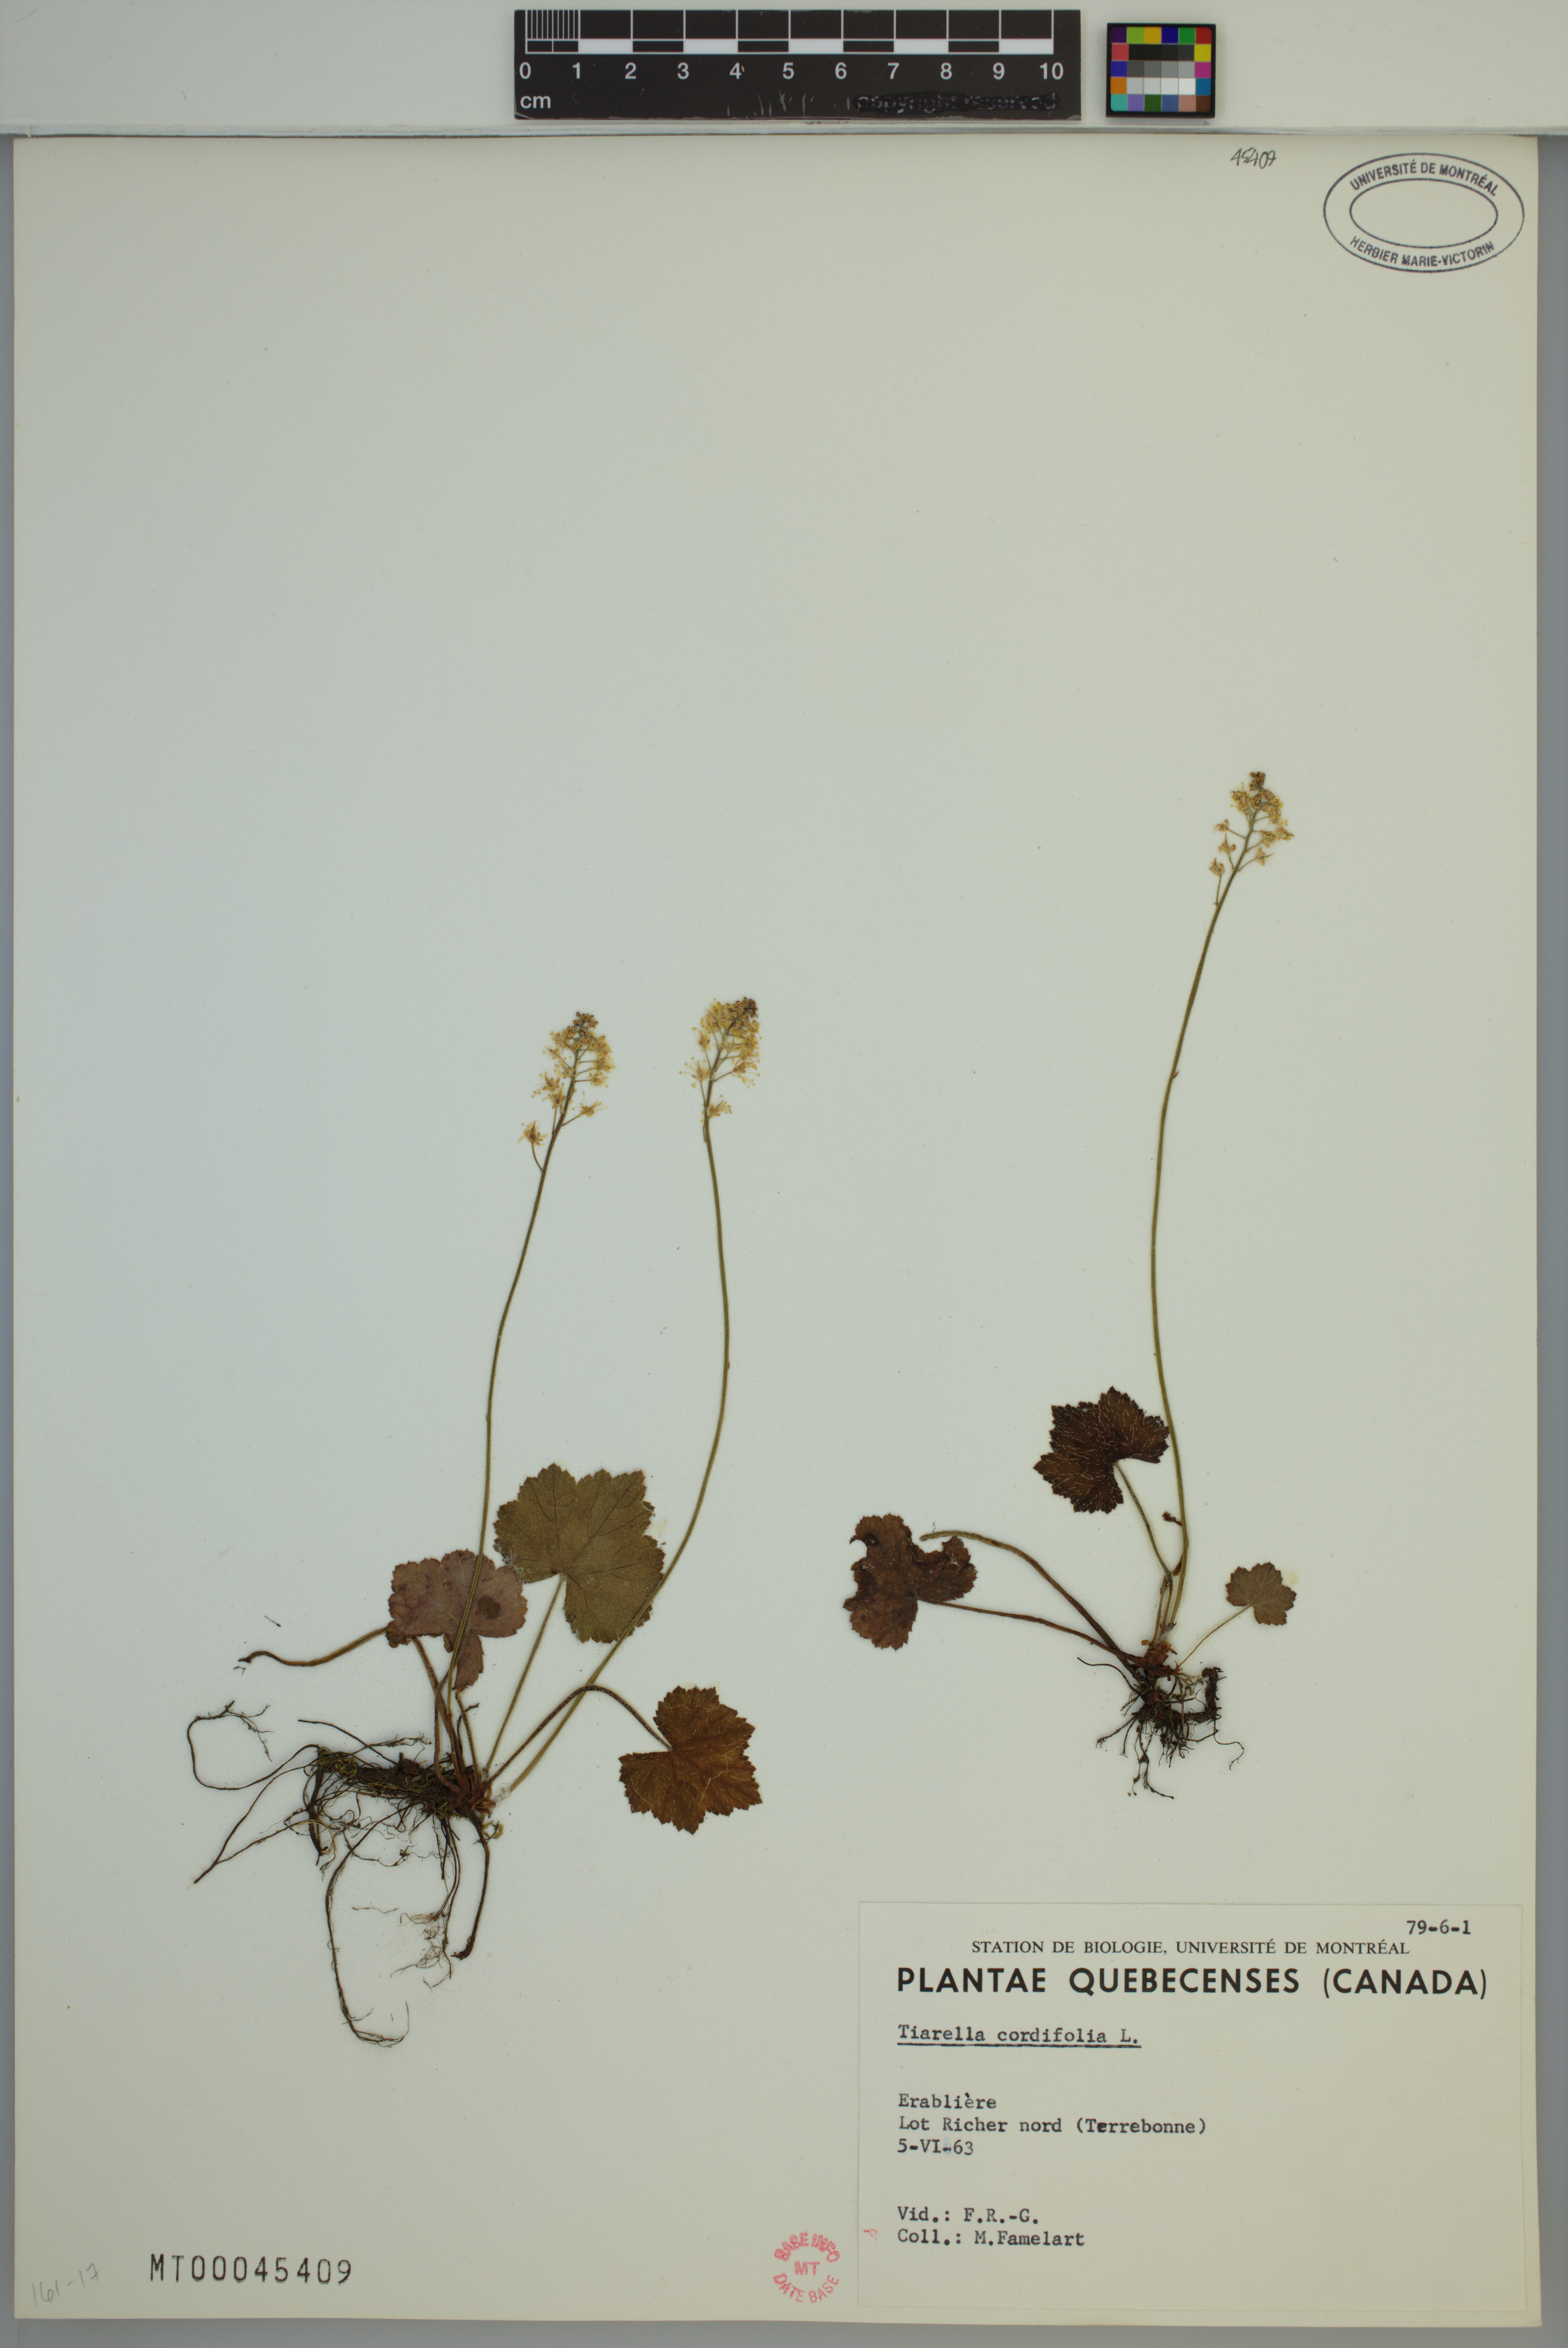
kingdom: Plantae
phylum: Tracheophyta
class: Magnoliopsida
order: Saxifragales
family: Saxifragaceae
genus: Tiarella
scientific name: Tiarella cordifolia
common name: Foamflower
